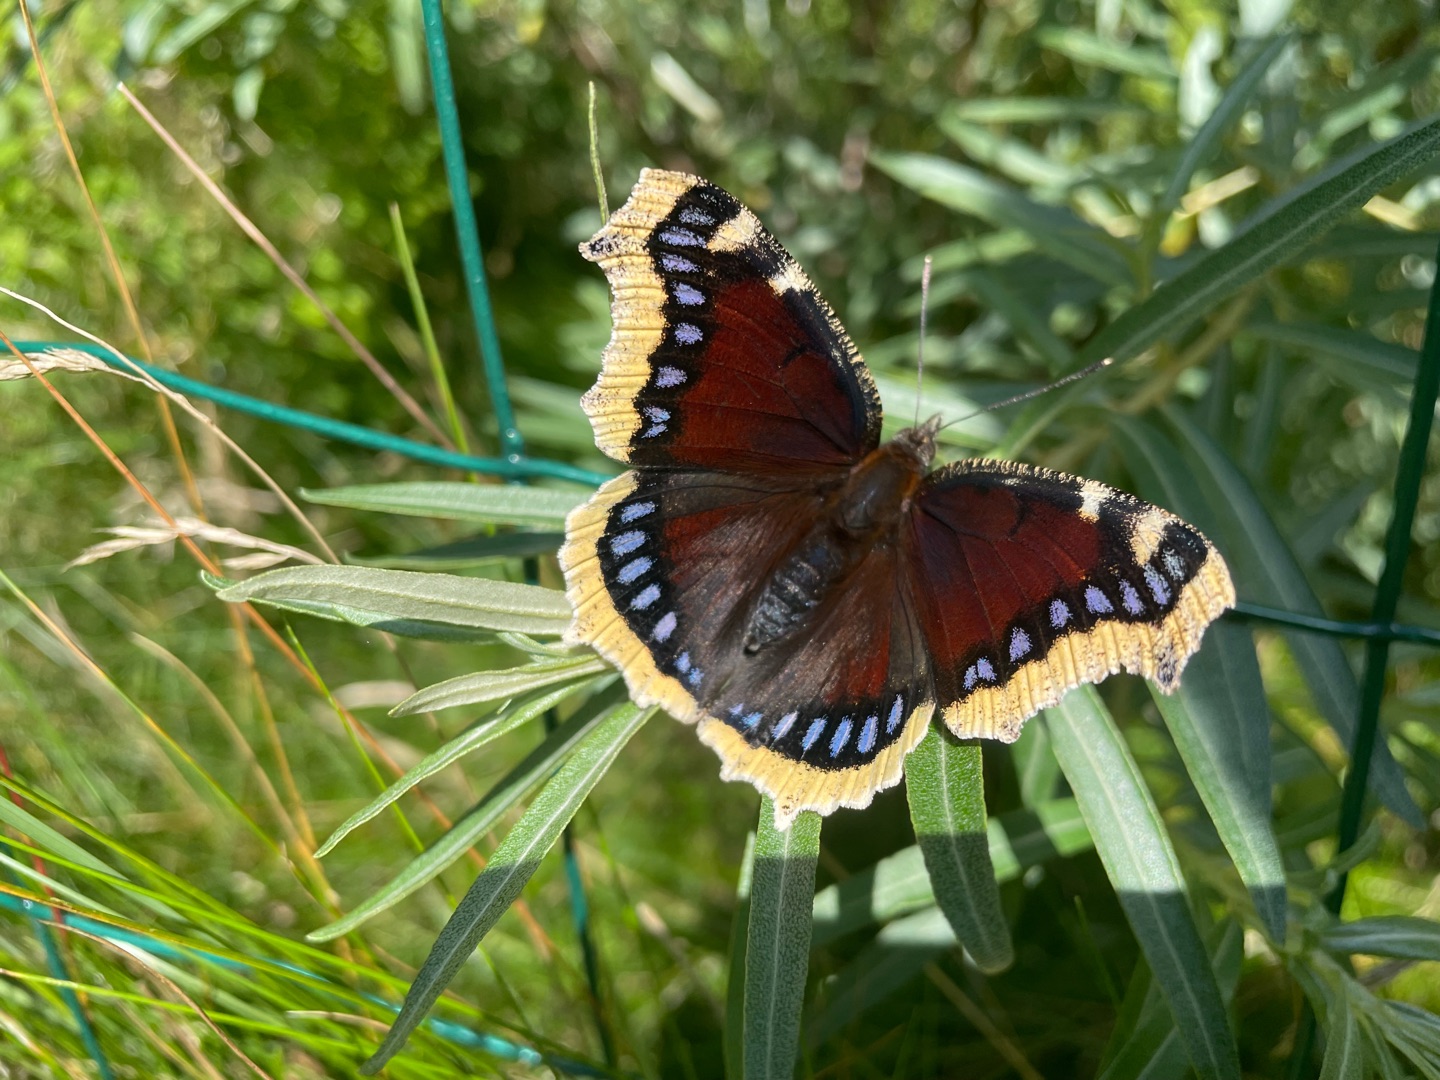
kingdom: Animalia
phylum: Arthropoda
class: Insecta
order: Lepidoptera
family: Nymphalidae
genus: Nymphalis
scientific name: Nymphalis antiopa
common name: Sørgekåbe
